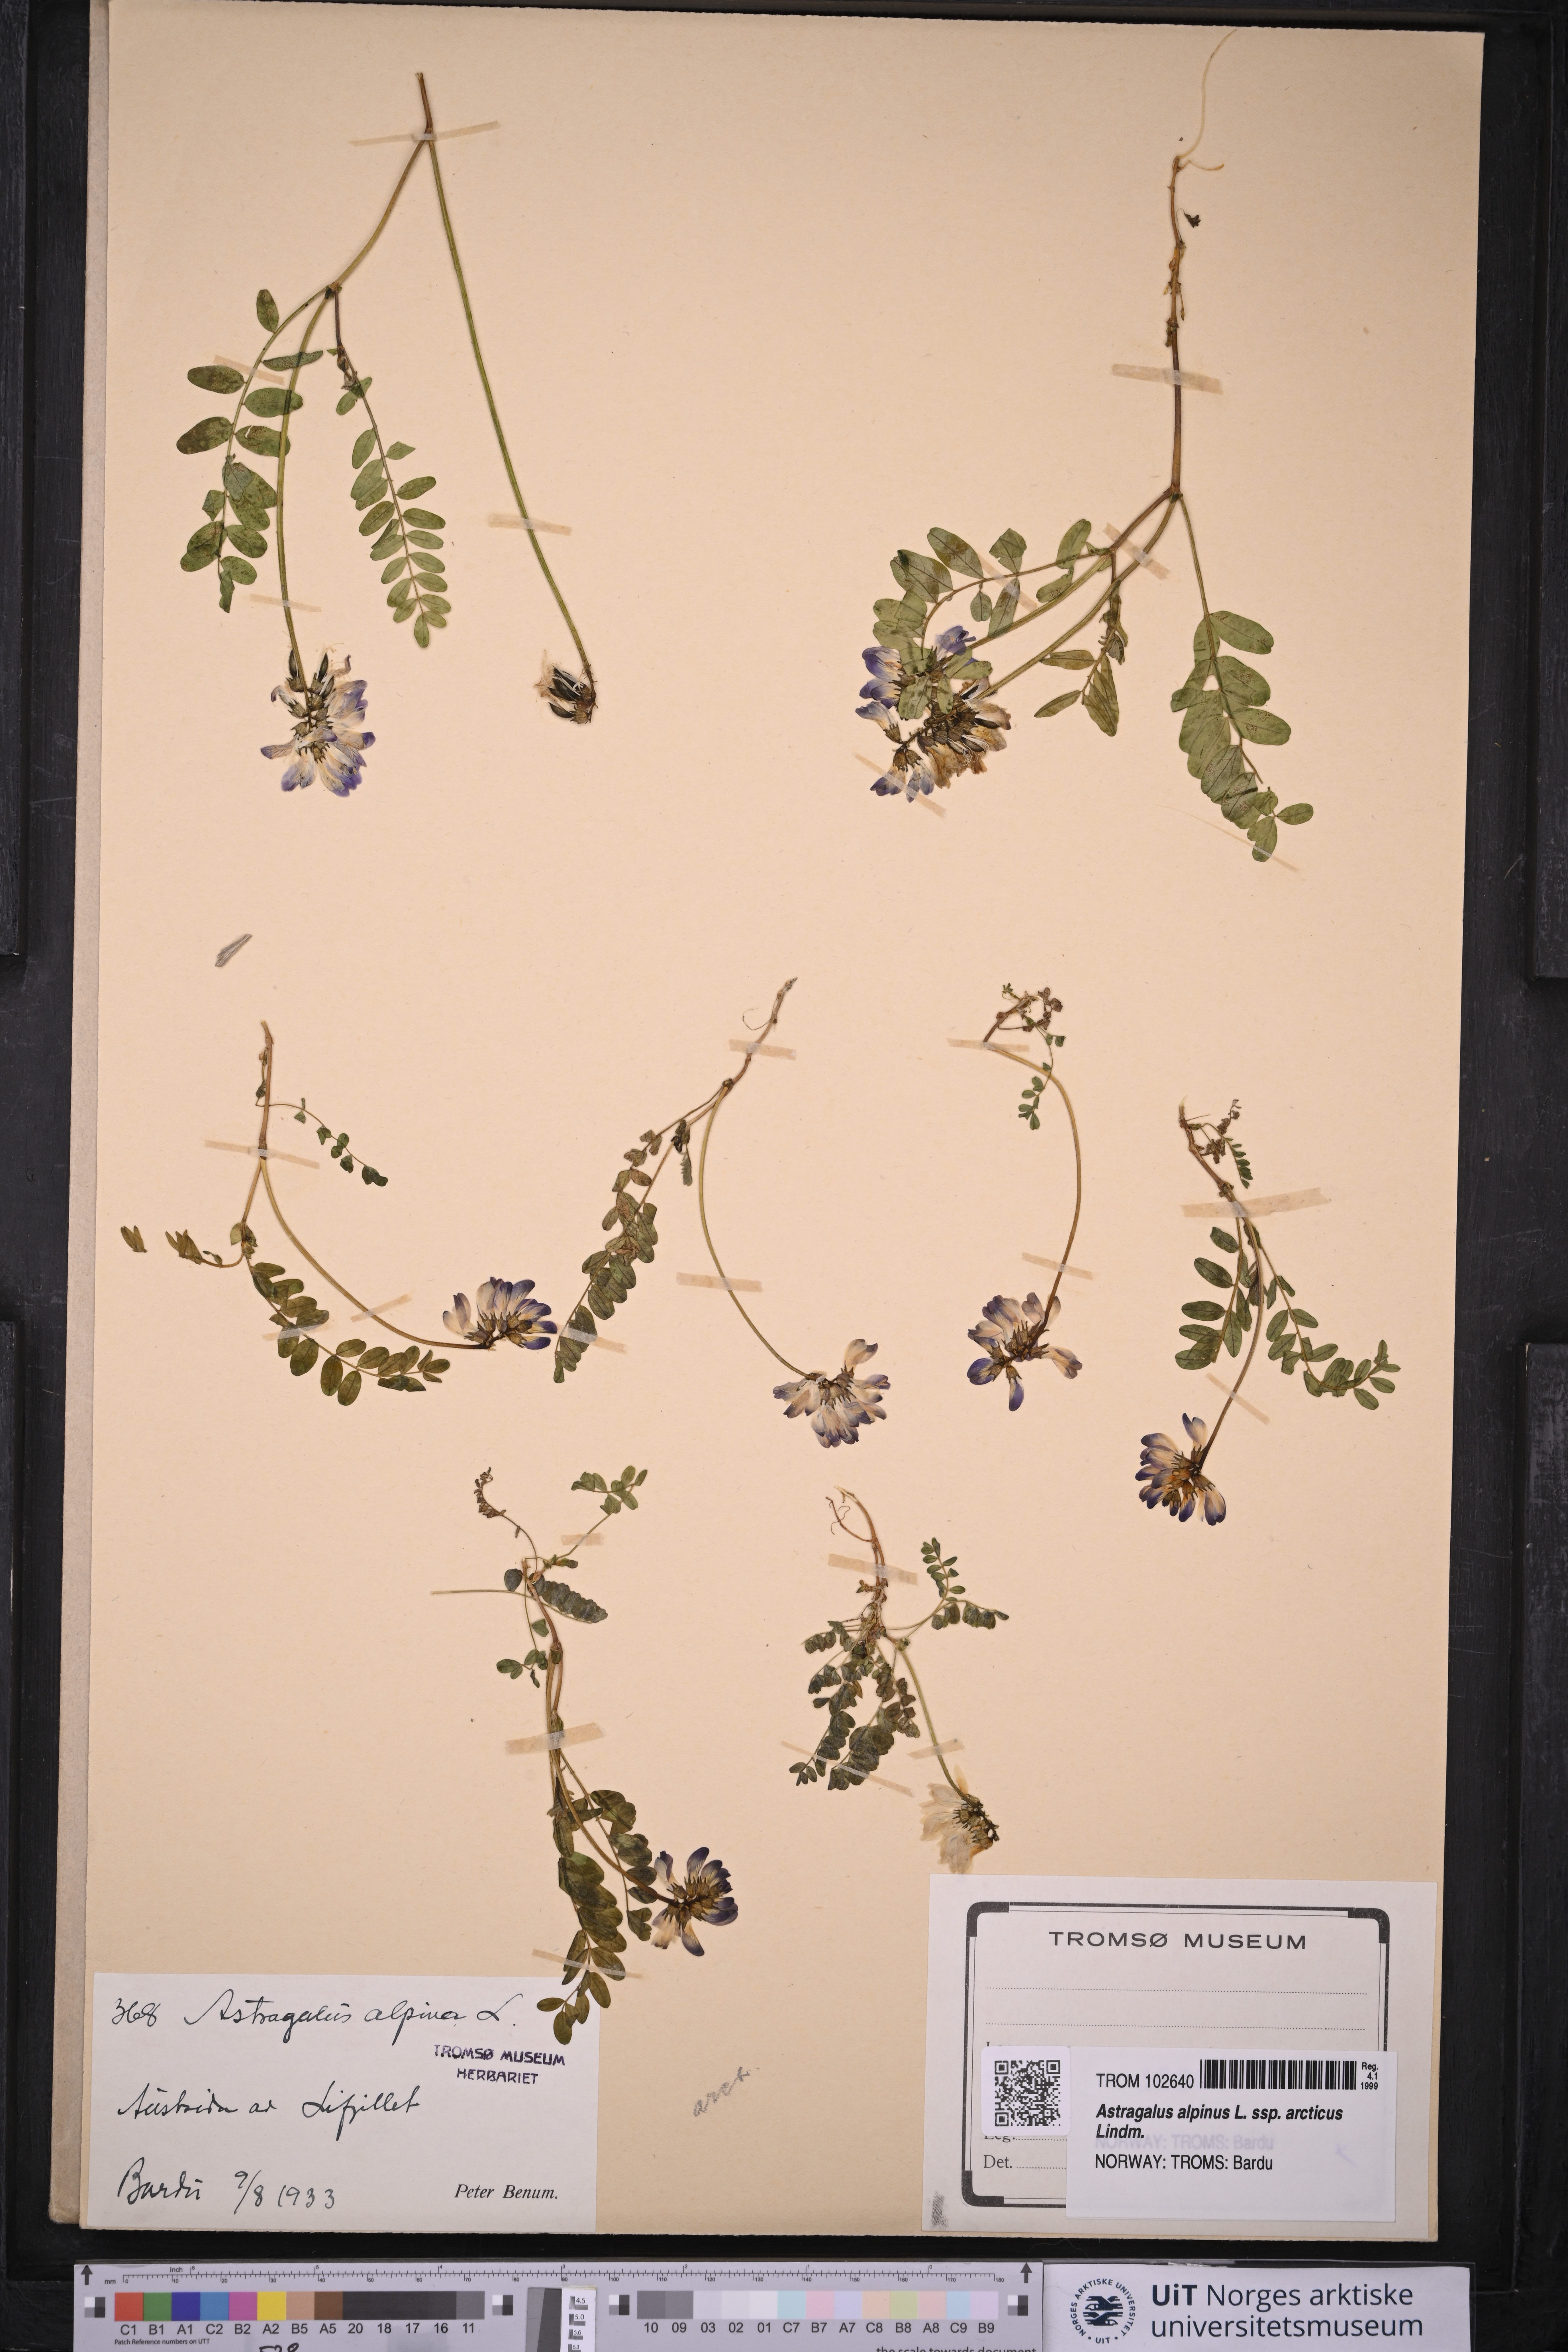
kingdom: Plantae
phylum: Tracheophyta
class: Magnoliopsida
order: Fabales
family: Fabaceae
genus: Astragalus
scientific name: Astragalus norvegicus
